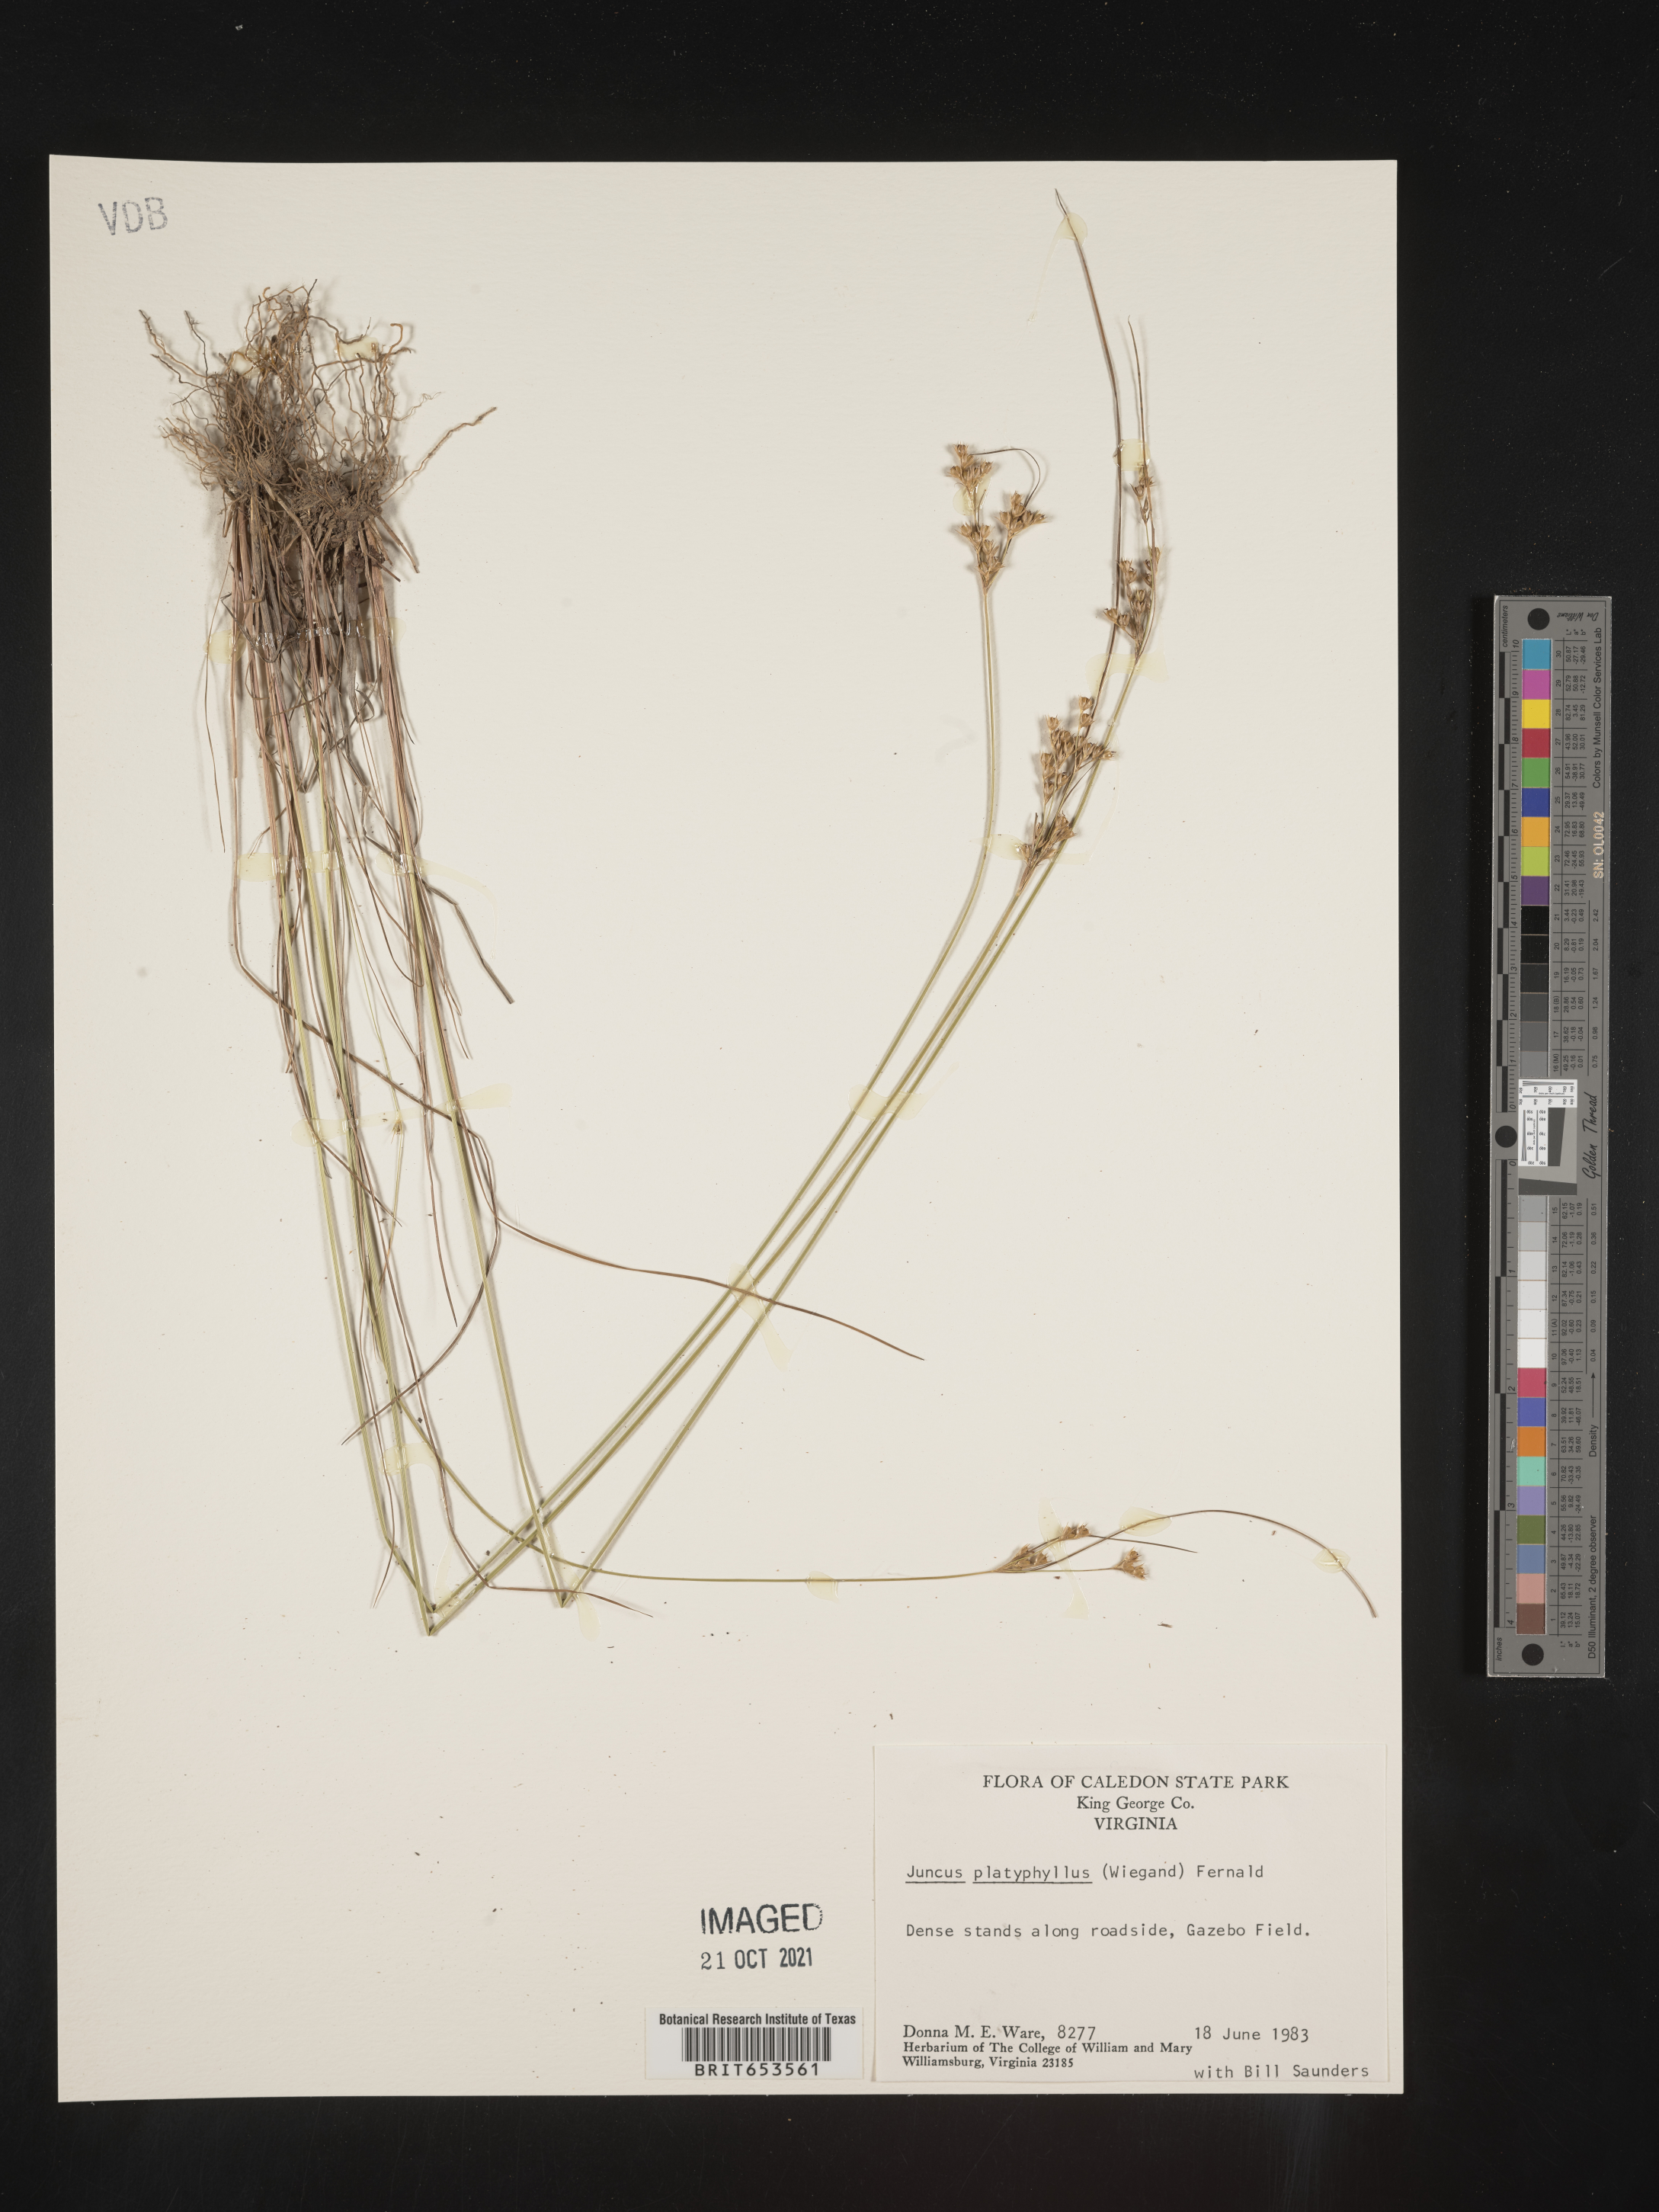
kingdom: Plantae
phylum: Tracheophyta
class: Liliopsida
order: Poales
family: Juncaceae
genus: Juncus
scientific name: Juncus dichotomus
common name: Forked rush
